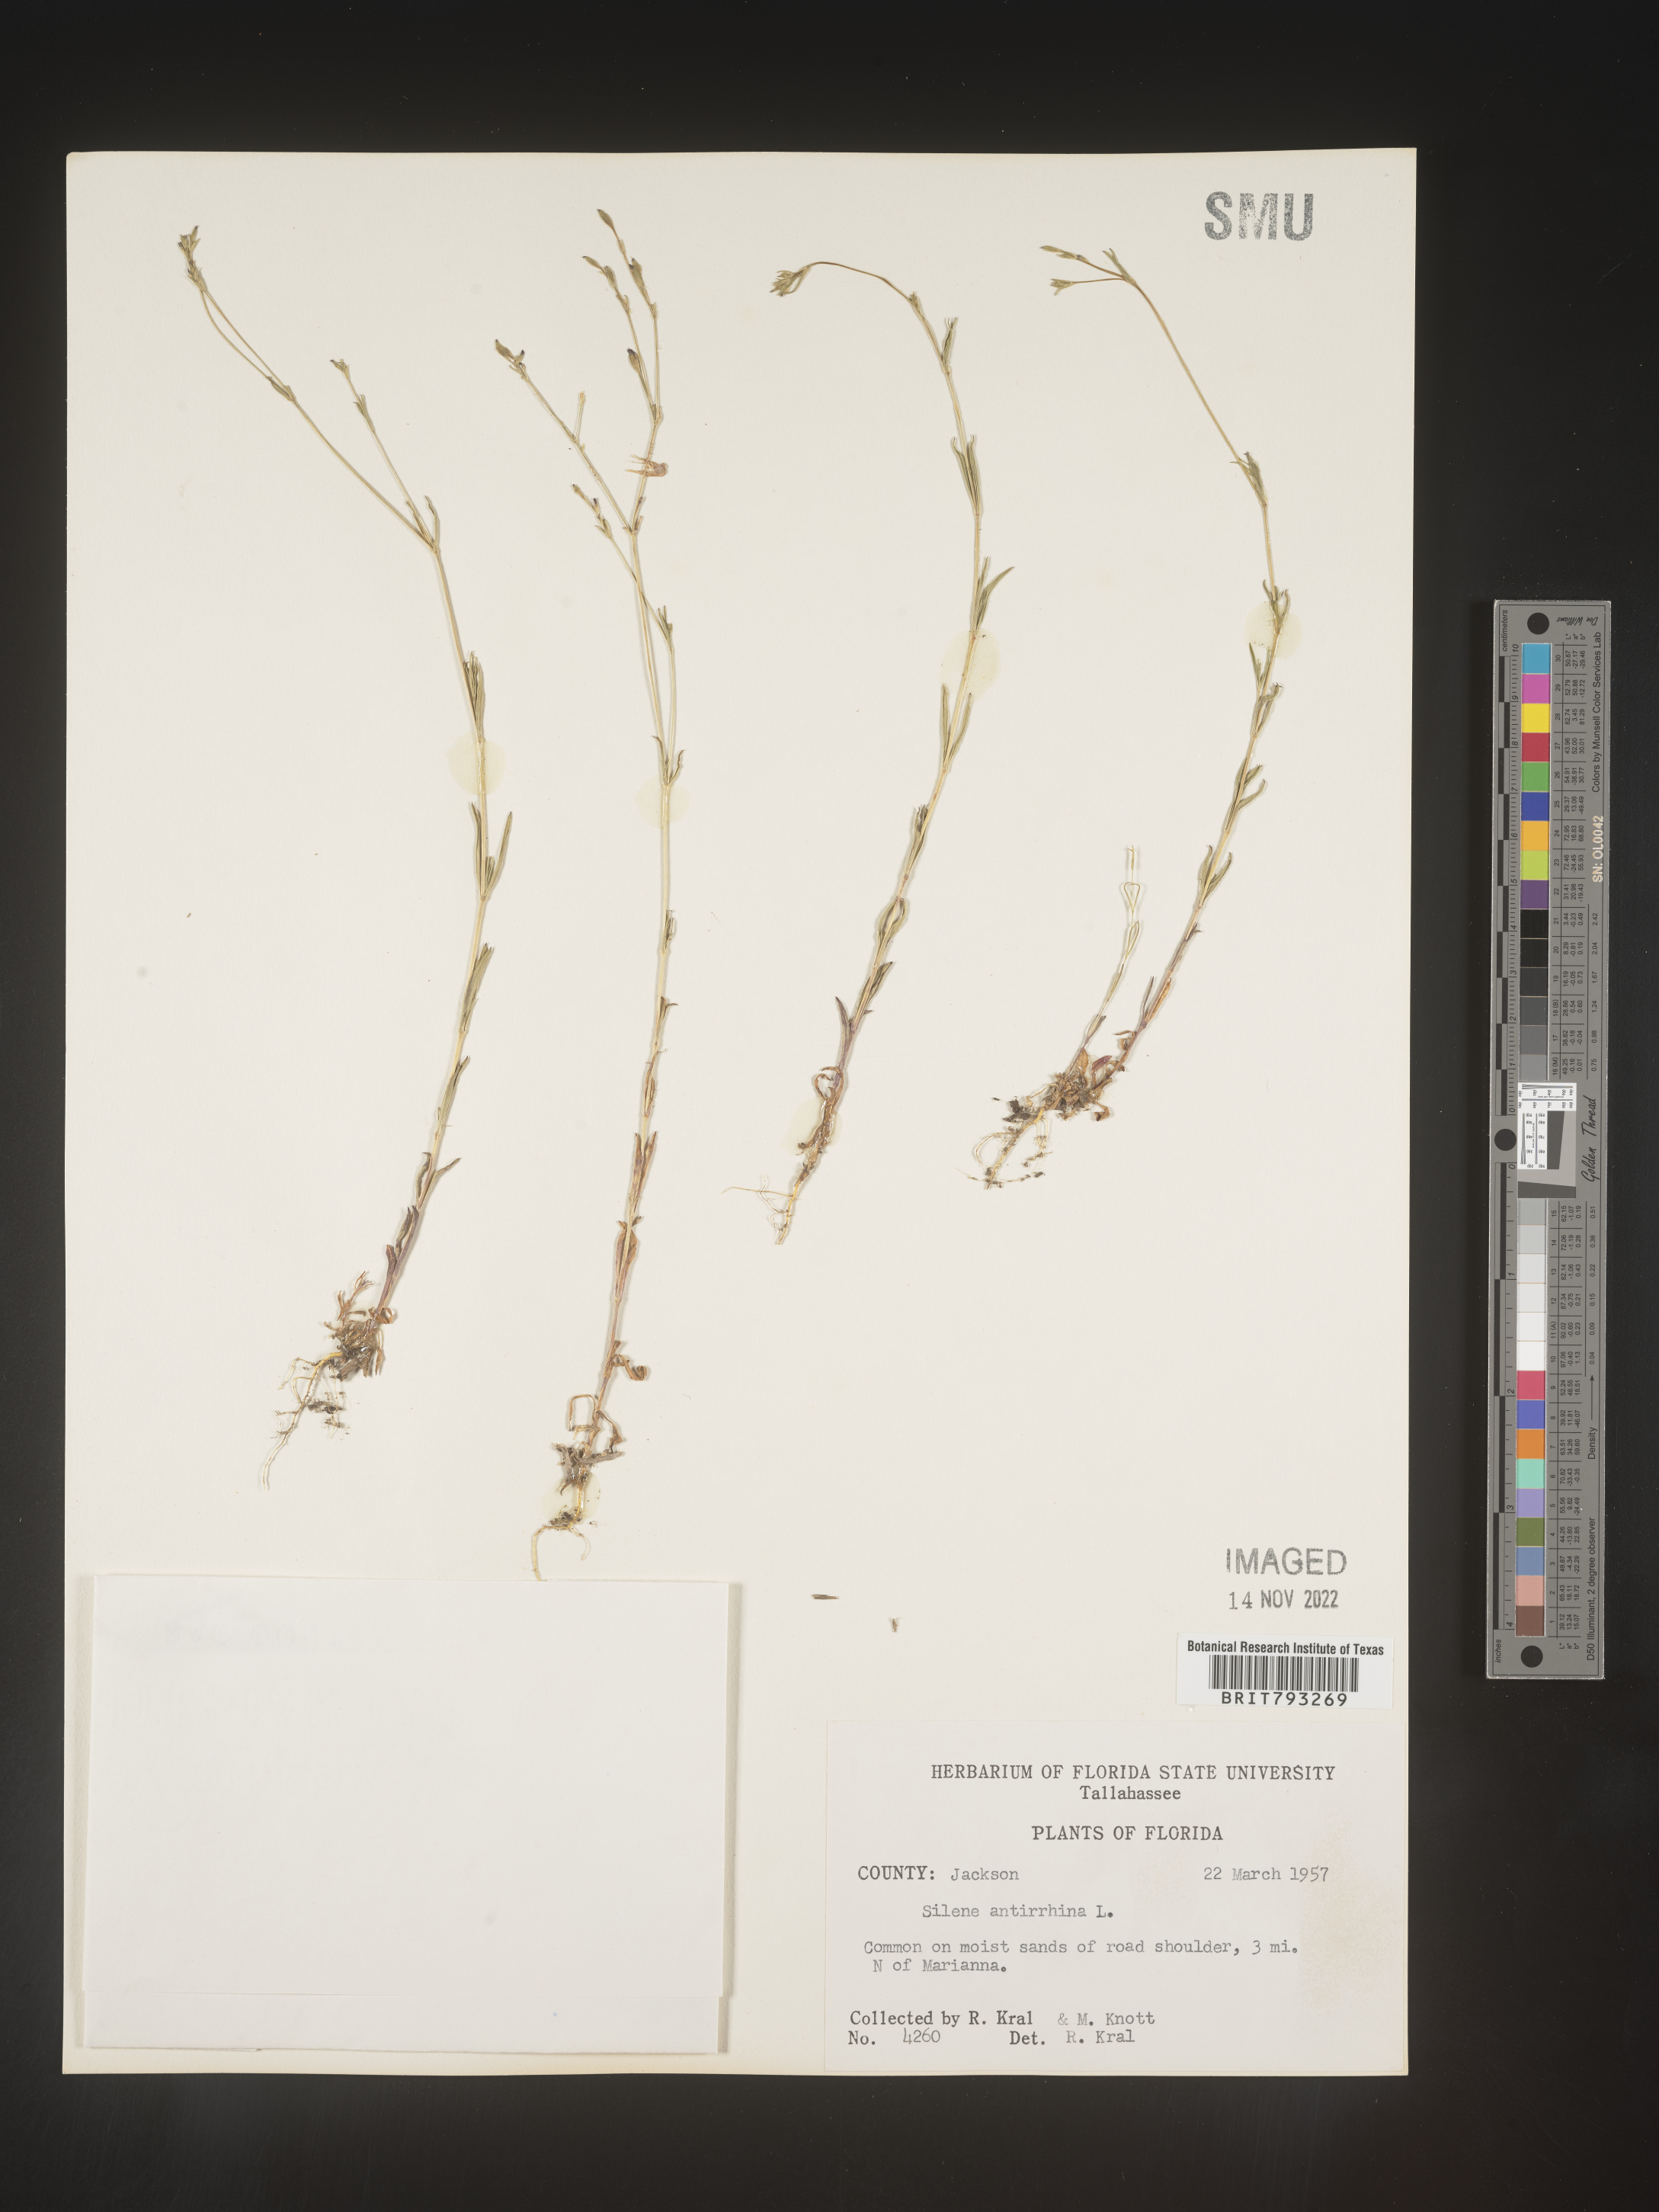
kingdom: Plantae
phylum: Tracheophyta
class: Magnoliopsida
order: Caryophyllales
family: Caryophyllaceae
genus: Silene
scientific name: Silene antirrhina
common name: Sleepy catchfly
